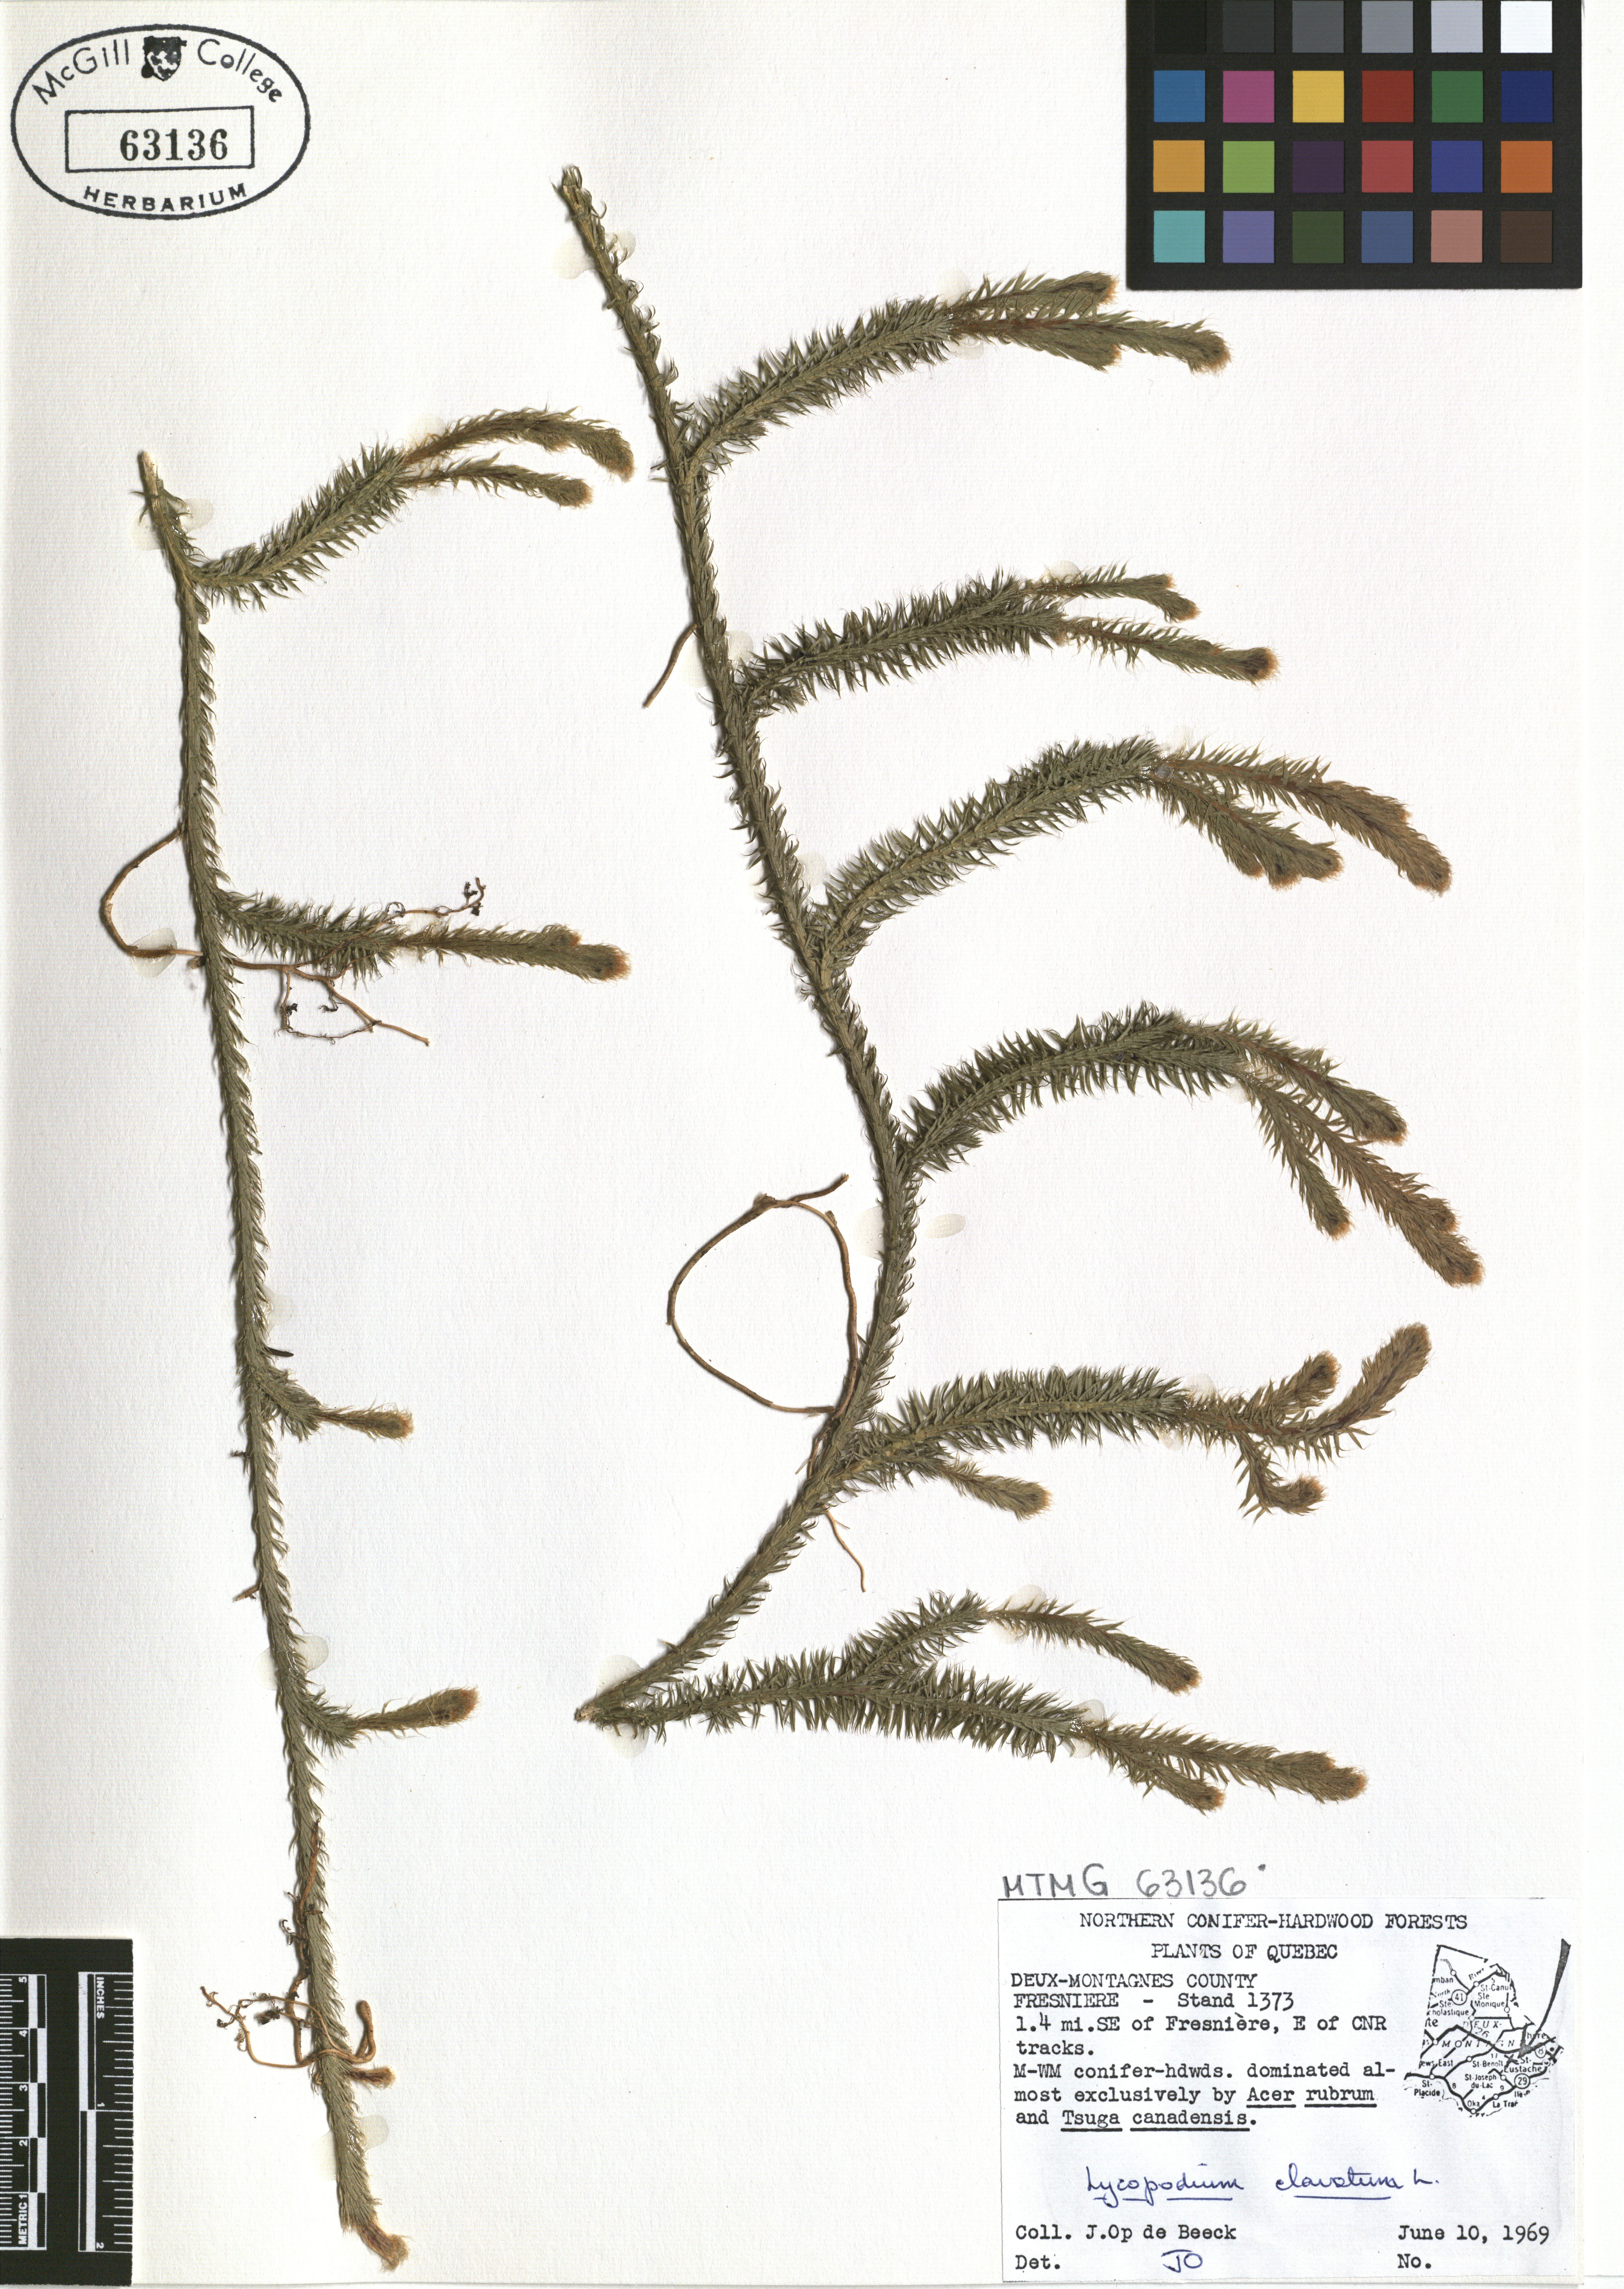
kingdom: Plantae
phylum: Tracheophyta
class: Lycopodiopsida
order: Lycopodiales
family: Lycopodiaceae
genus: Lycopodium
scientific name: Lycopodium clavatum
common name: Stag's-horn clubmoss
